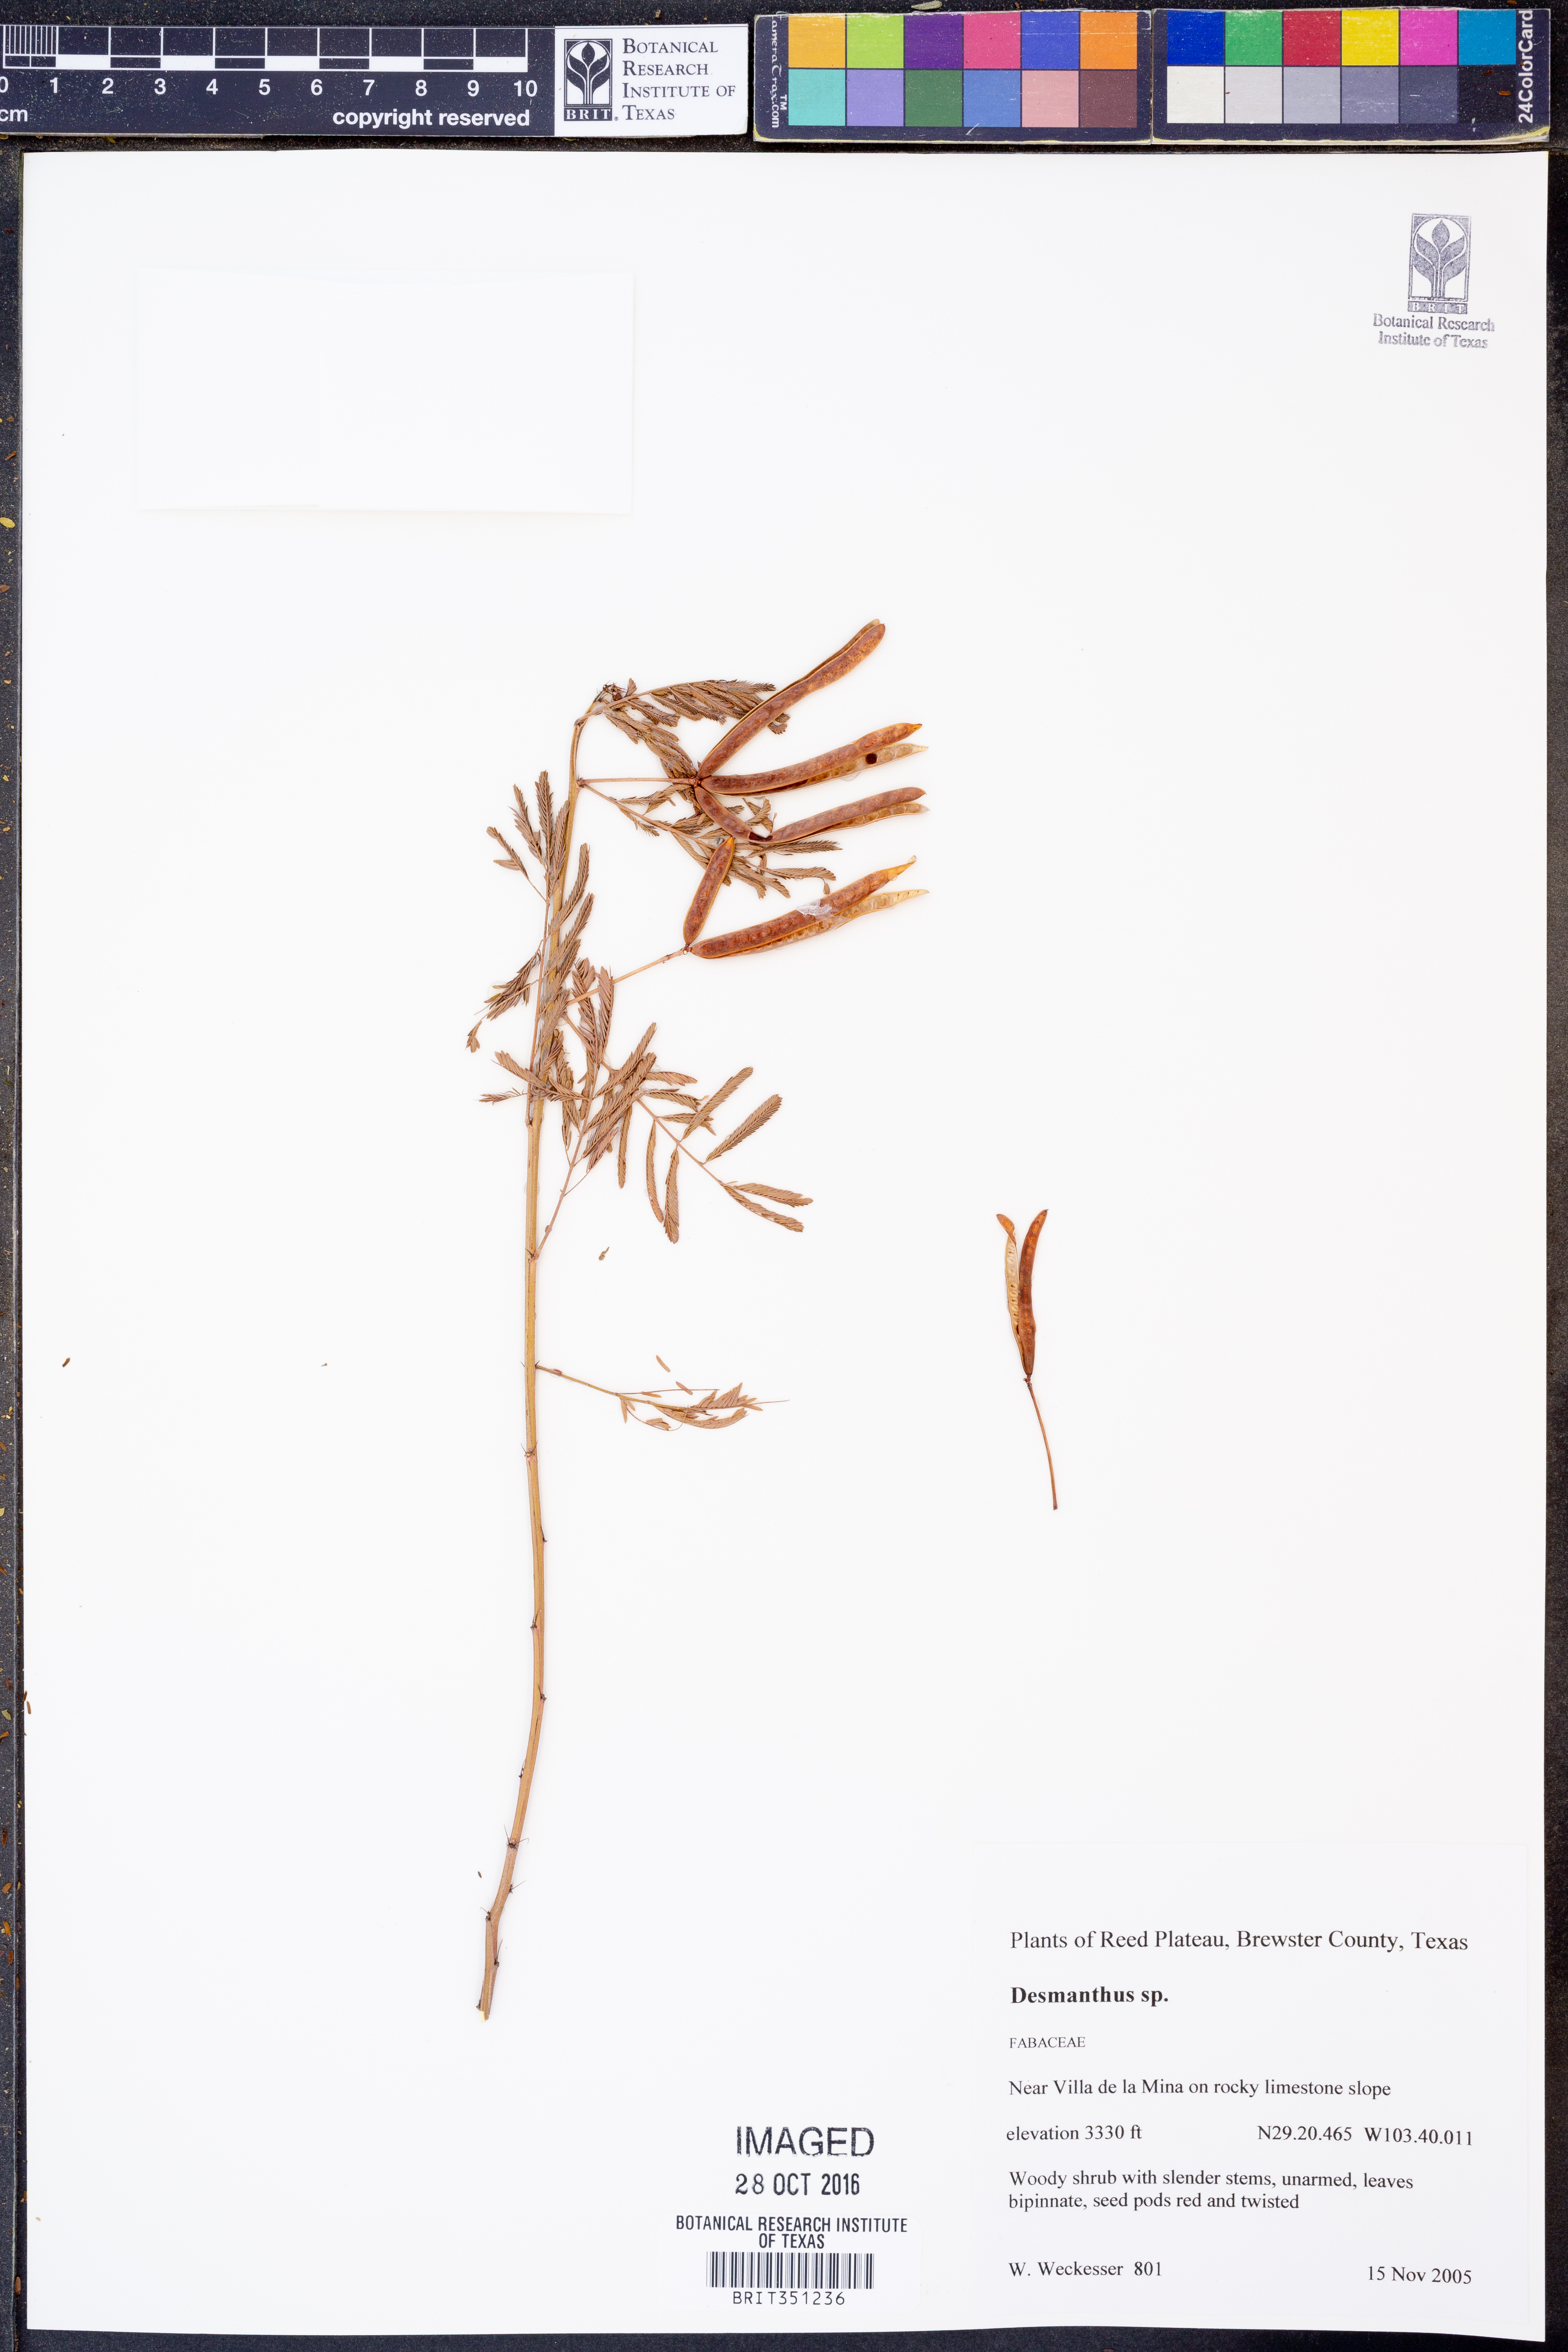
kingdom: Plantae
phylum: Tracheophyta
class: Magnoliopsida
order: Fabales
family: Fabaceae
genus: Desmanthus
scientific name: Desmanthus
